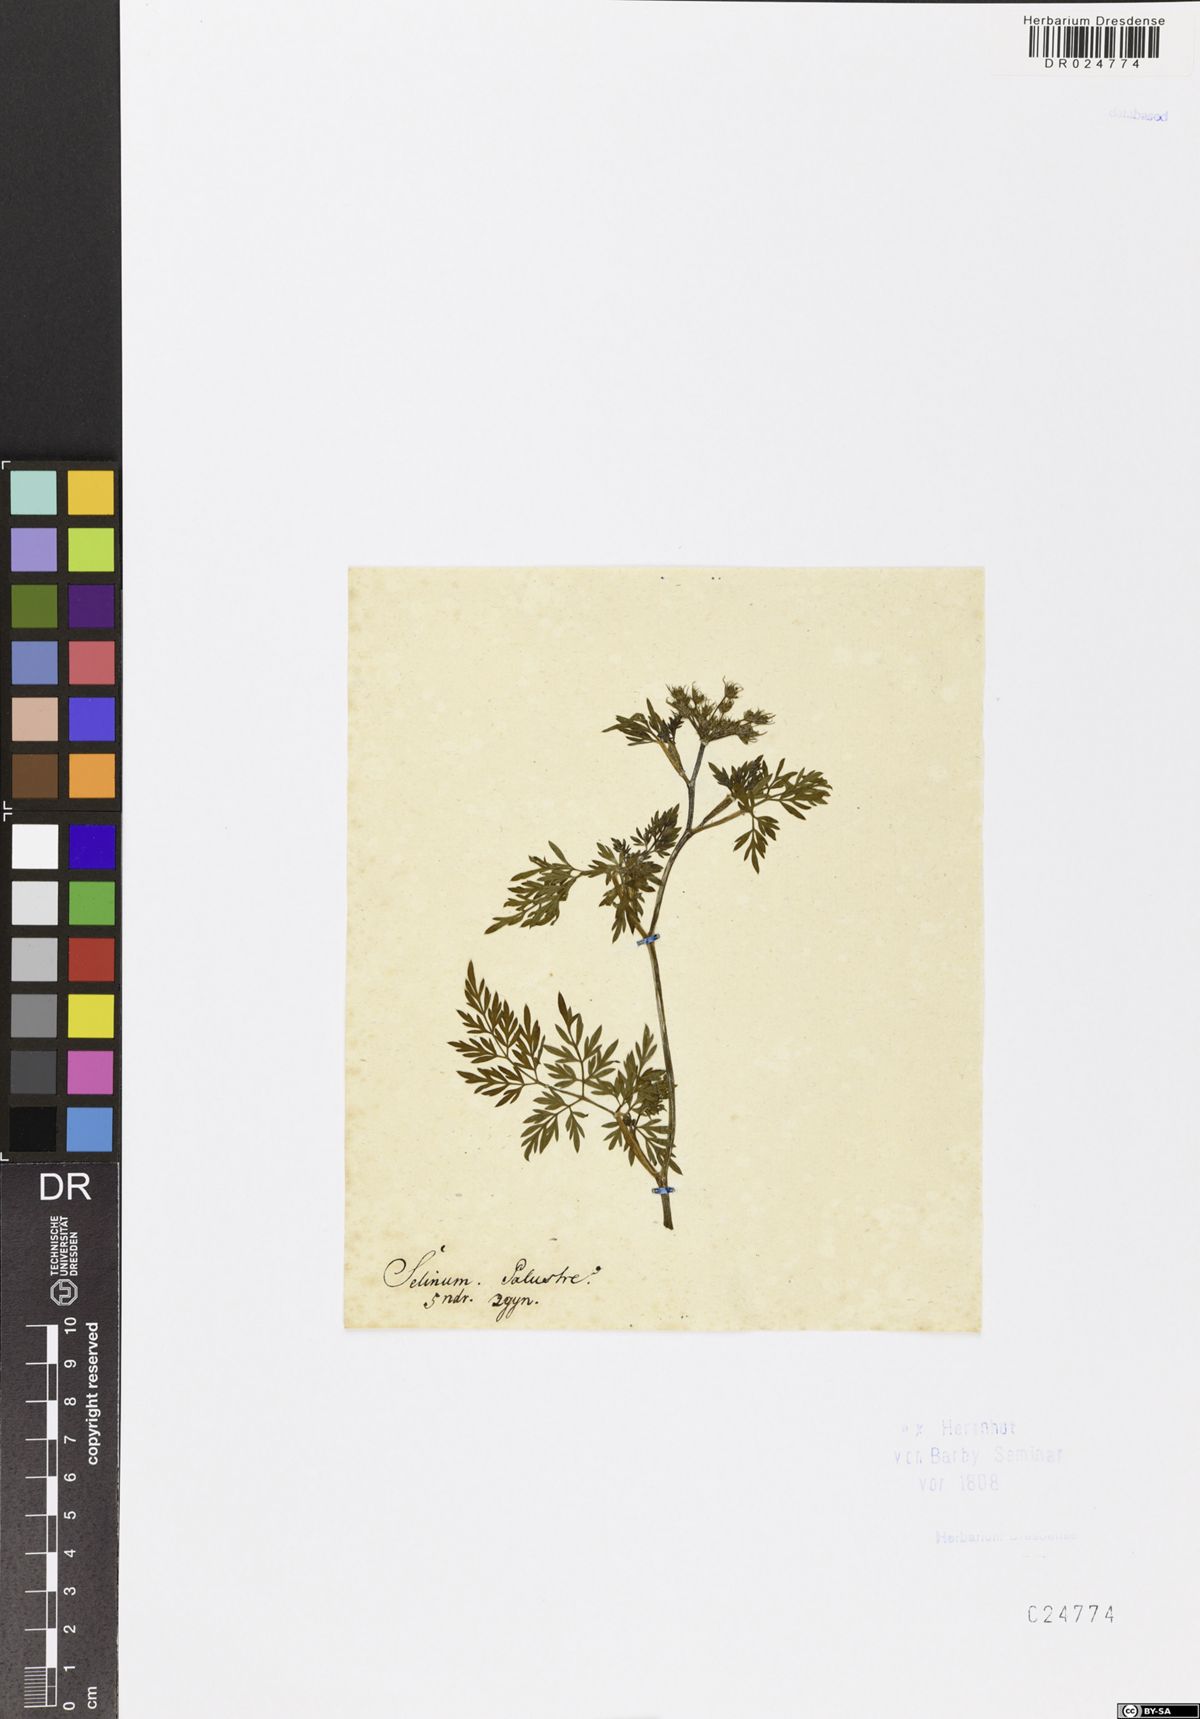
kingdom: Plantae
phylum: Tracheophyta
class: Magnoliopsida
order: Apiales
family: Apiaceae
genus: Thysselinum
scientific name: Thysselinum palustre
